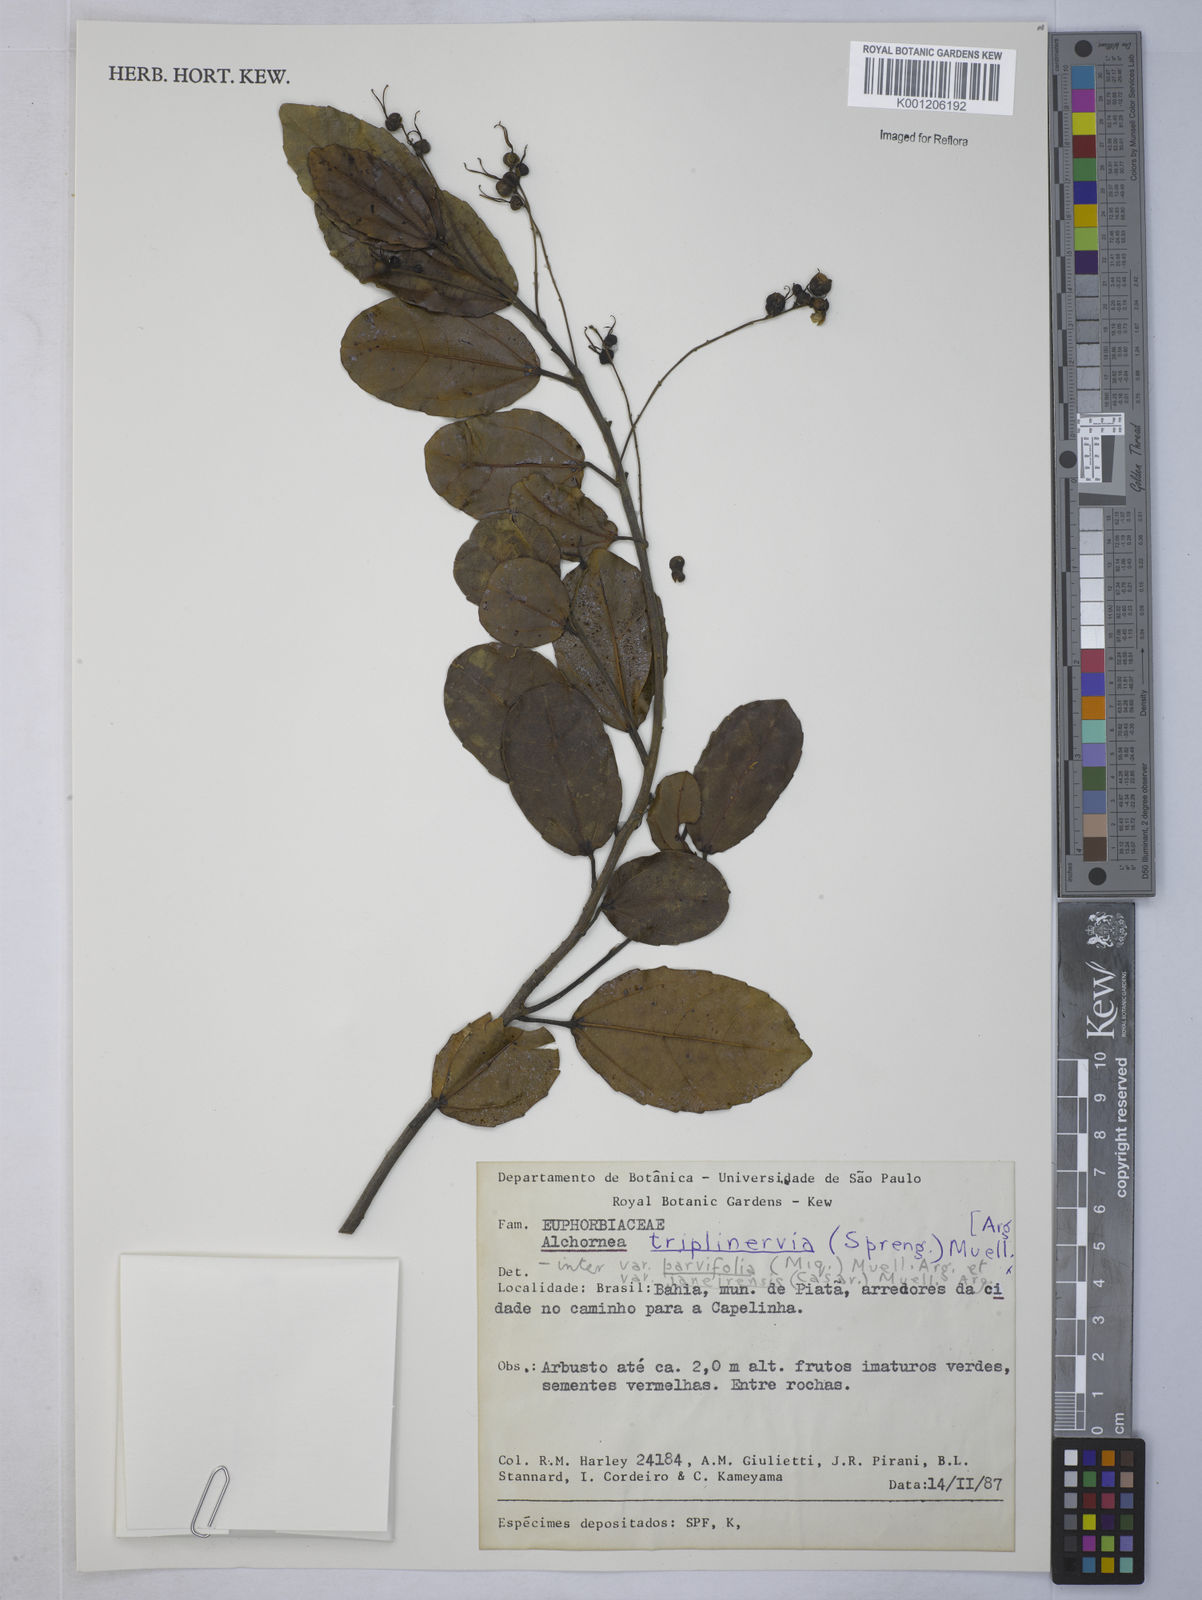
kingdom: Plantae
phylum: Tracheophyta
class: Magnoliopsida
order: Malpighiales
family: Euphorbiaceae
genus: Alchornea
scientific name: Alchornea
